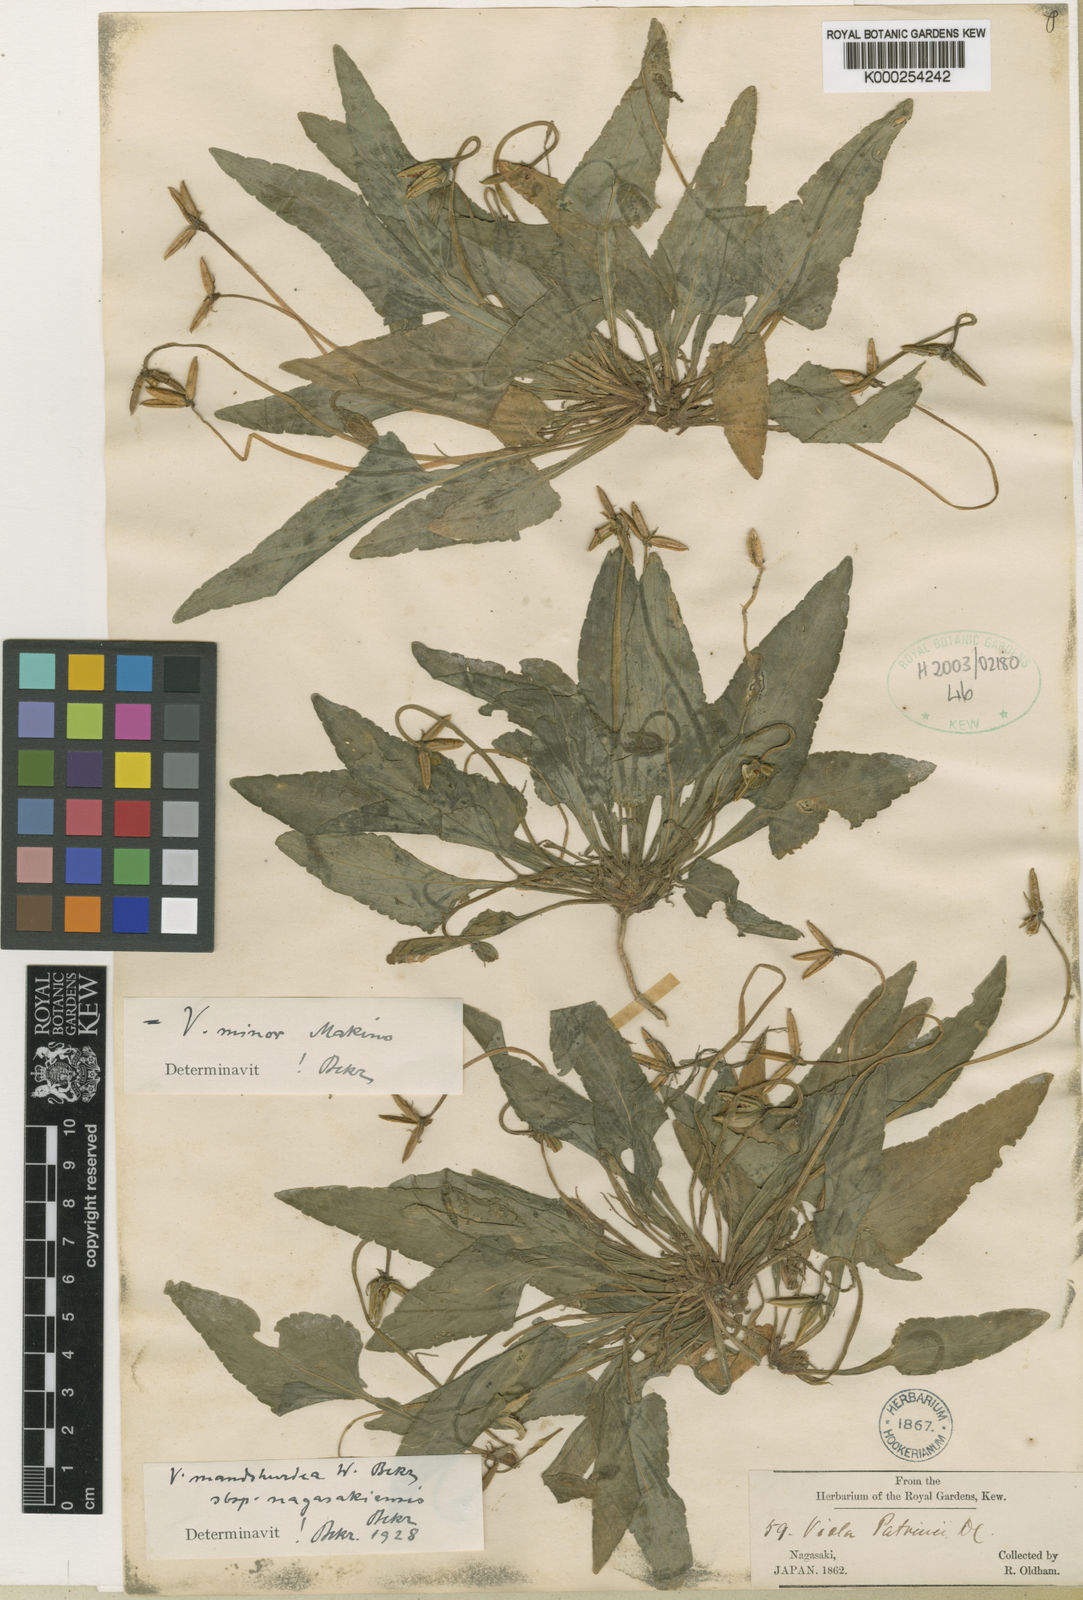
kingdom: Plantae
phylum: Tracheophyta
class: Magnoliopsida
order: Malpighiales
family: Violaceae
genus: Viola
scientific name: Viola mandshurica
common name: Manchuria violet
